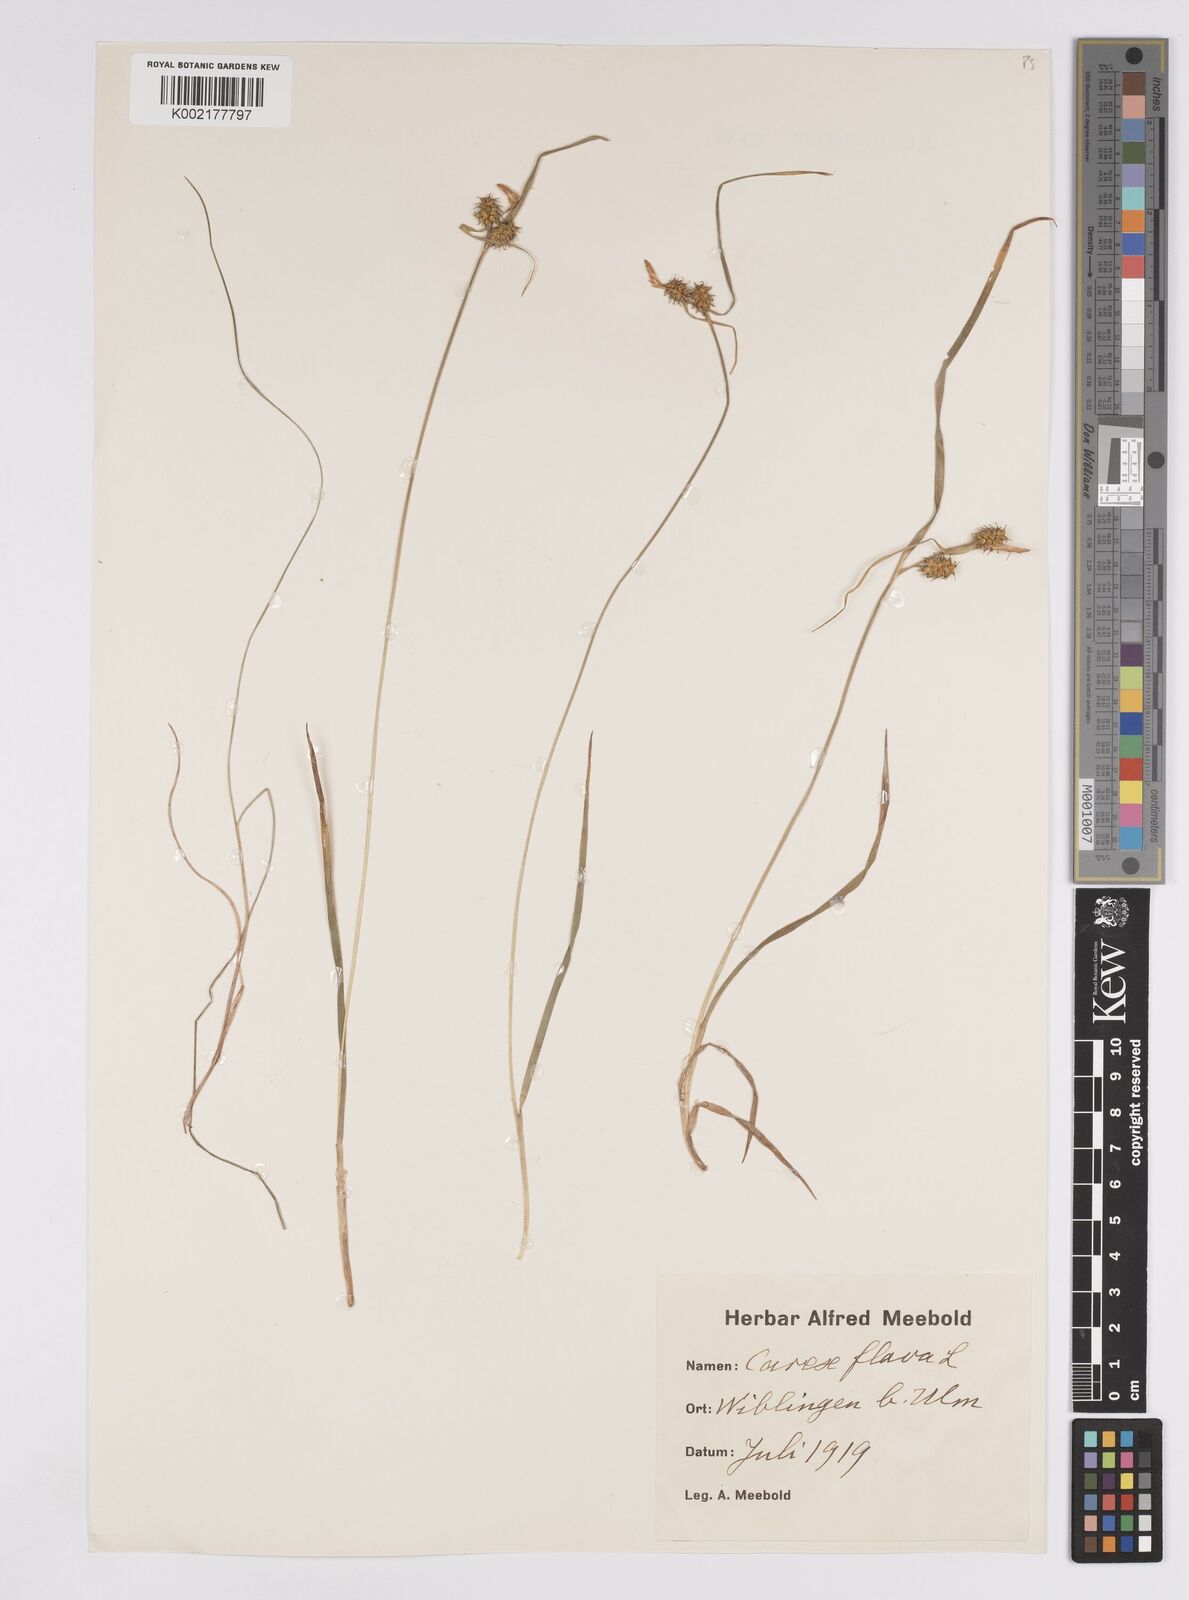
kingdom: Plantae
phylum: Tracheophyta
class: Liliopsida
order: Poales
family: Cyperaceae
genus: Carex
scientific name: Carex flava
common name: Large yellow-sedge
